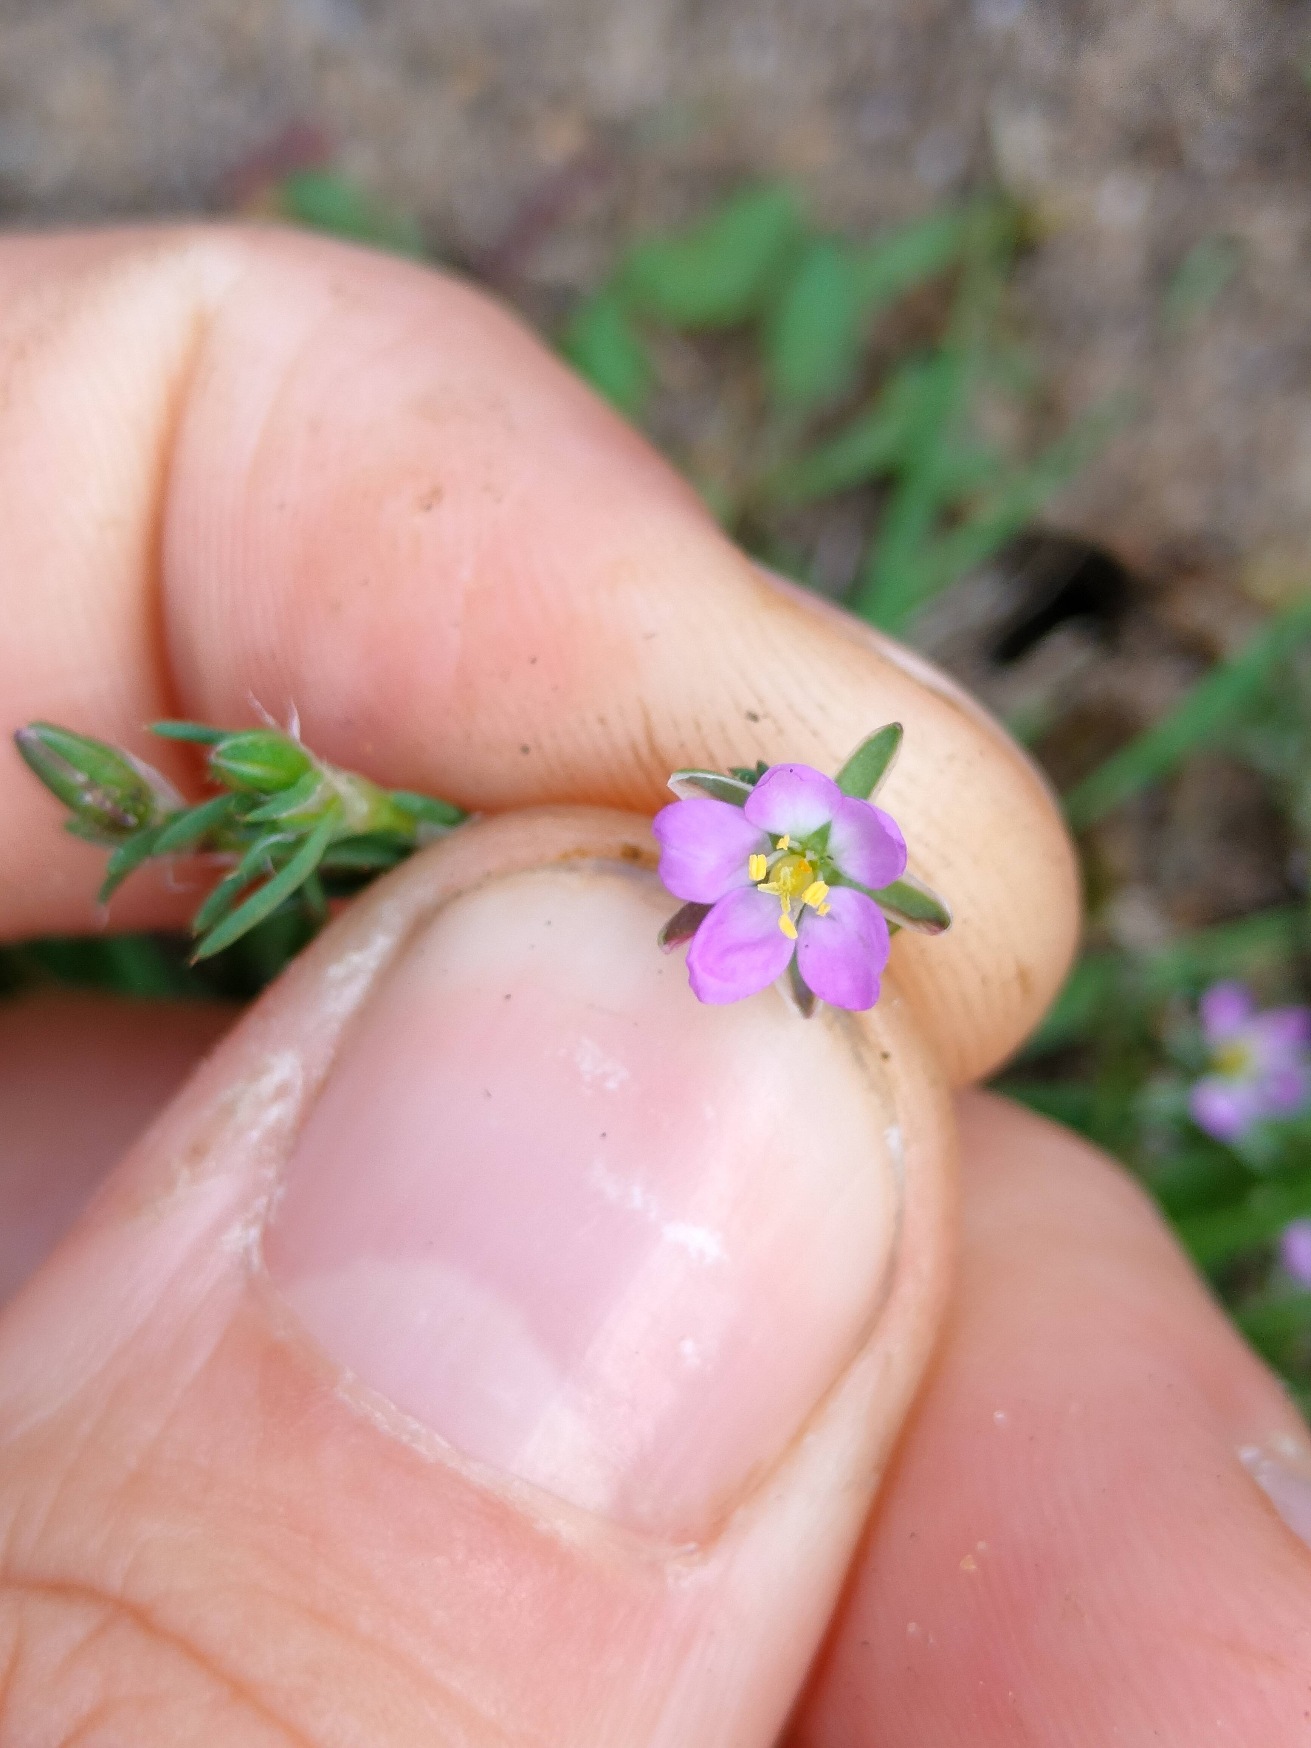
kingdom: Plantae
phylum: Tracheophyta
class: Magnoliopsida
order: Caryophyllales
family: Caryophyllaceae
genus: Spergularia
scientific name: Spergularia rubra
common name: Mark-hindeknæ
